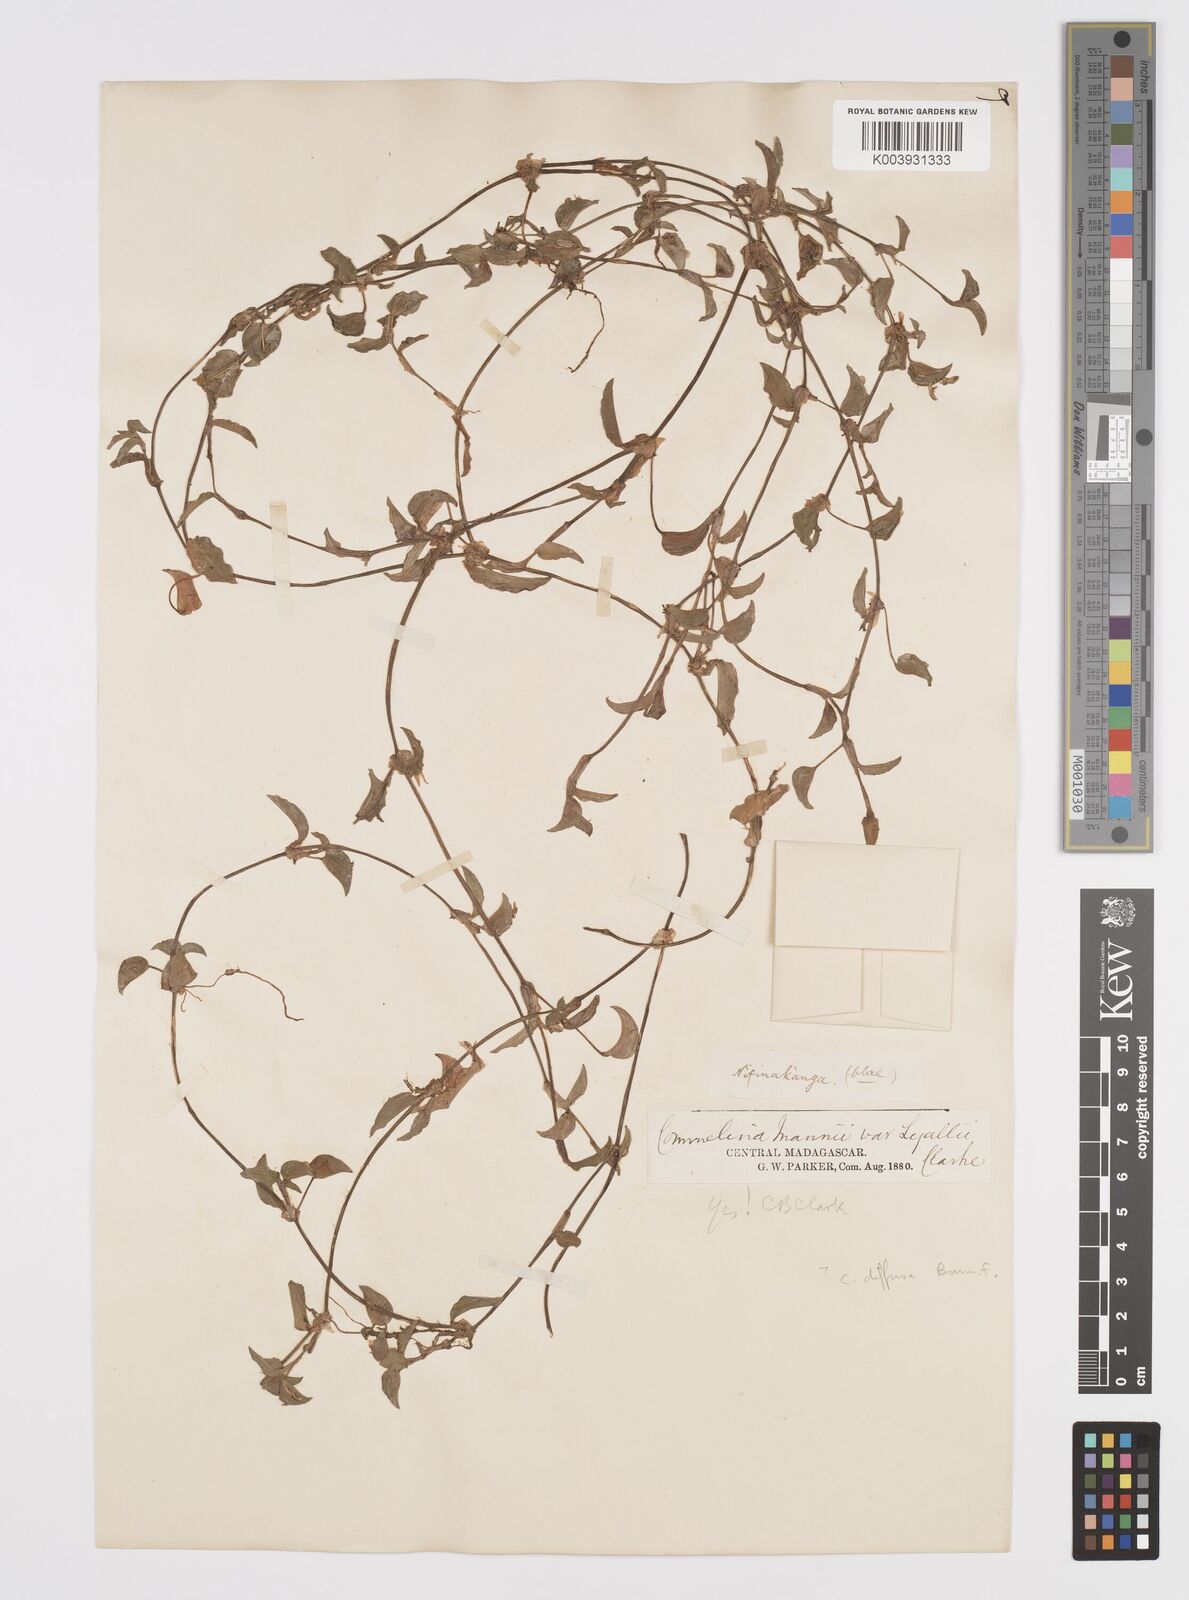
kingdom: Plantae
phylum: Tracheophyta
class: Liliopsida
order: Commelinales
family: Commelinaceae
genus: Commelina
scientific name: Commelina africana
